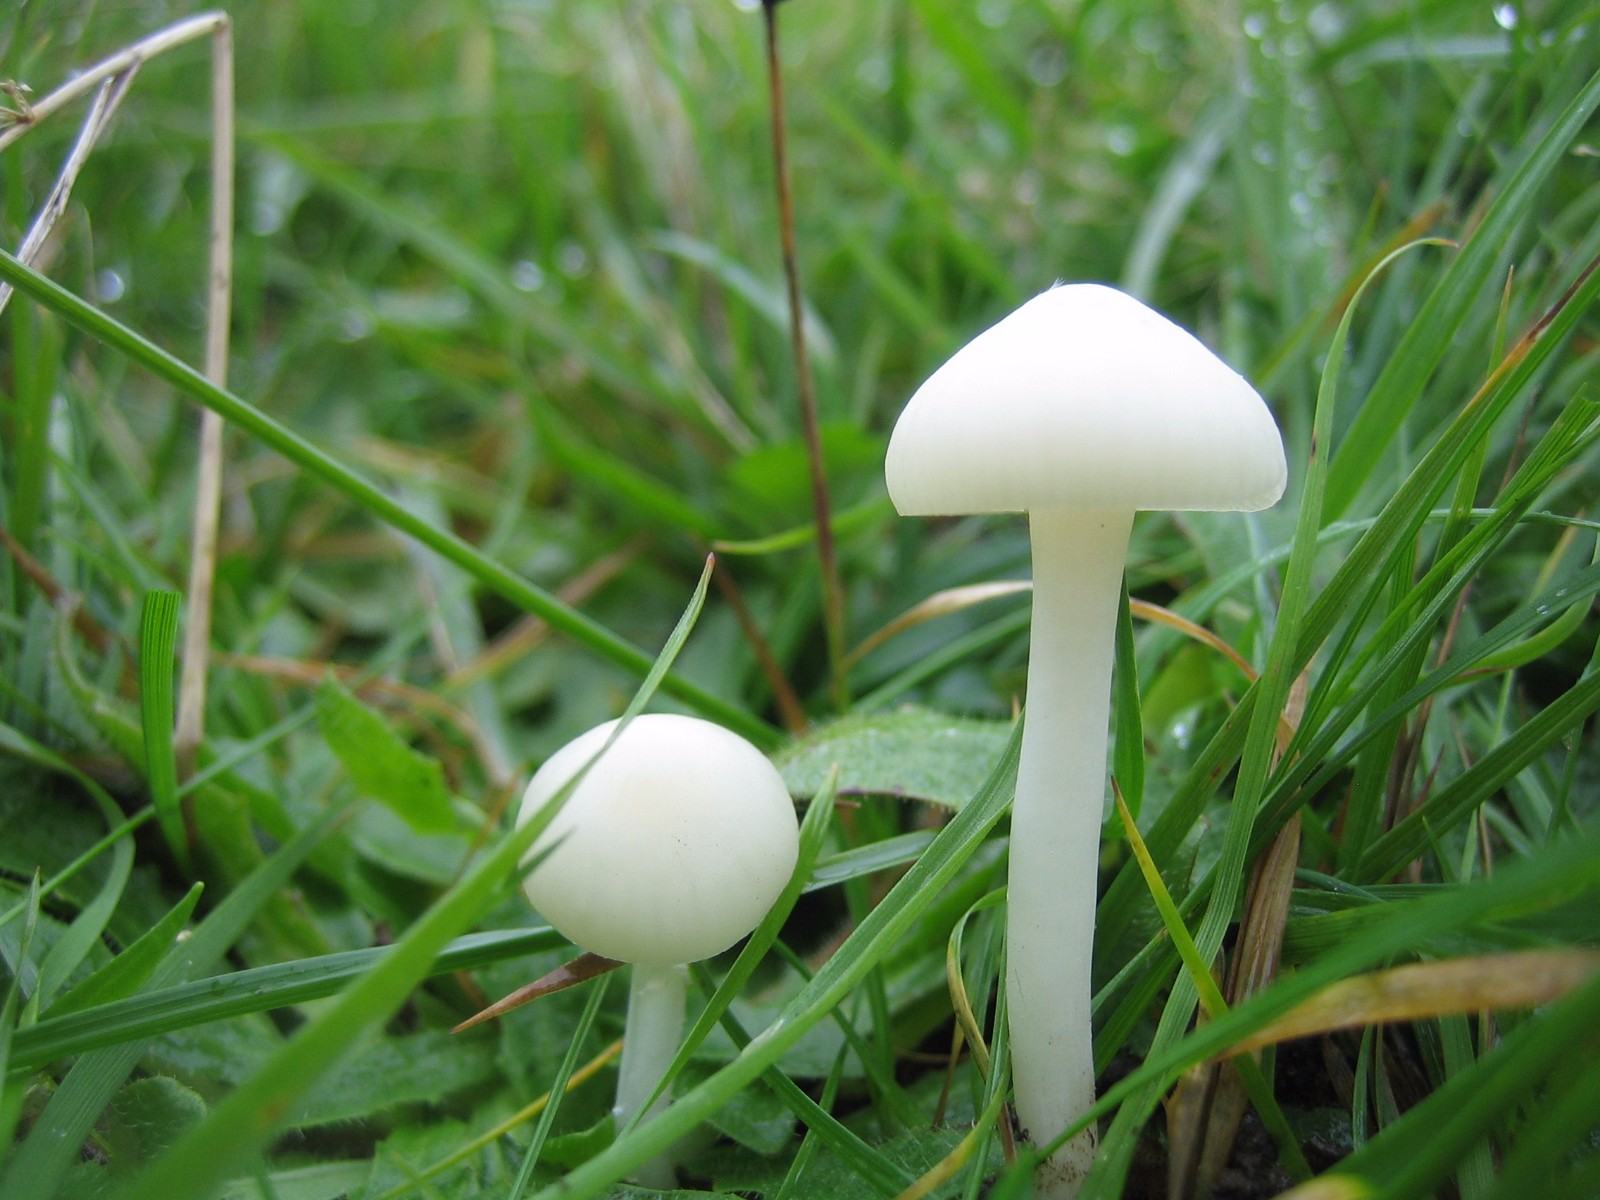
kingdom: Fungi
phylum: Basidiomycota
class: Agaricomycetes
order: Agaricales
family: Hygrophoraceae
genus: Cuphophyllus
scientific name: Cuphophyllus virgineus
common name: snehvid vokshat
